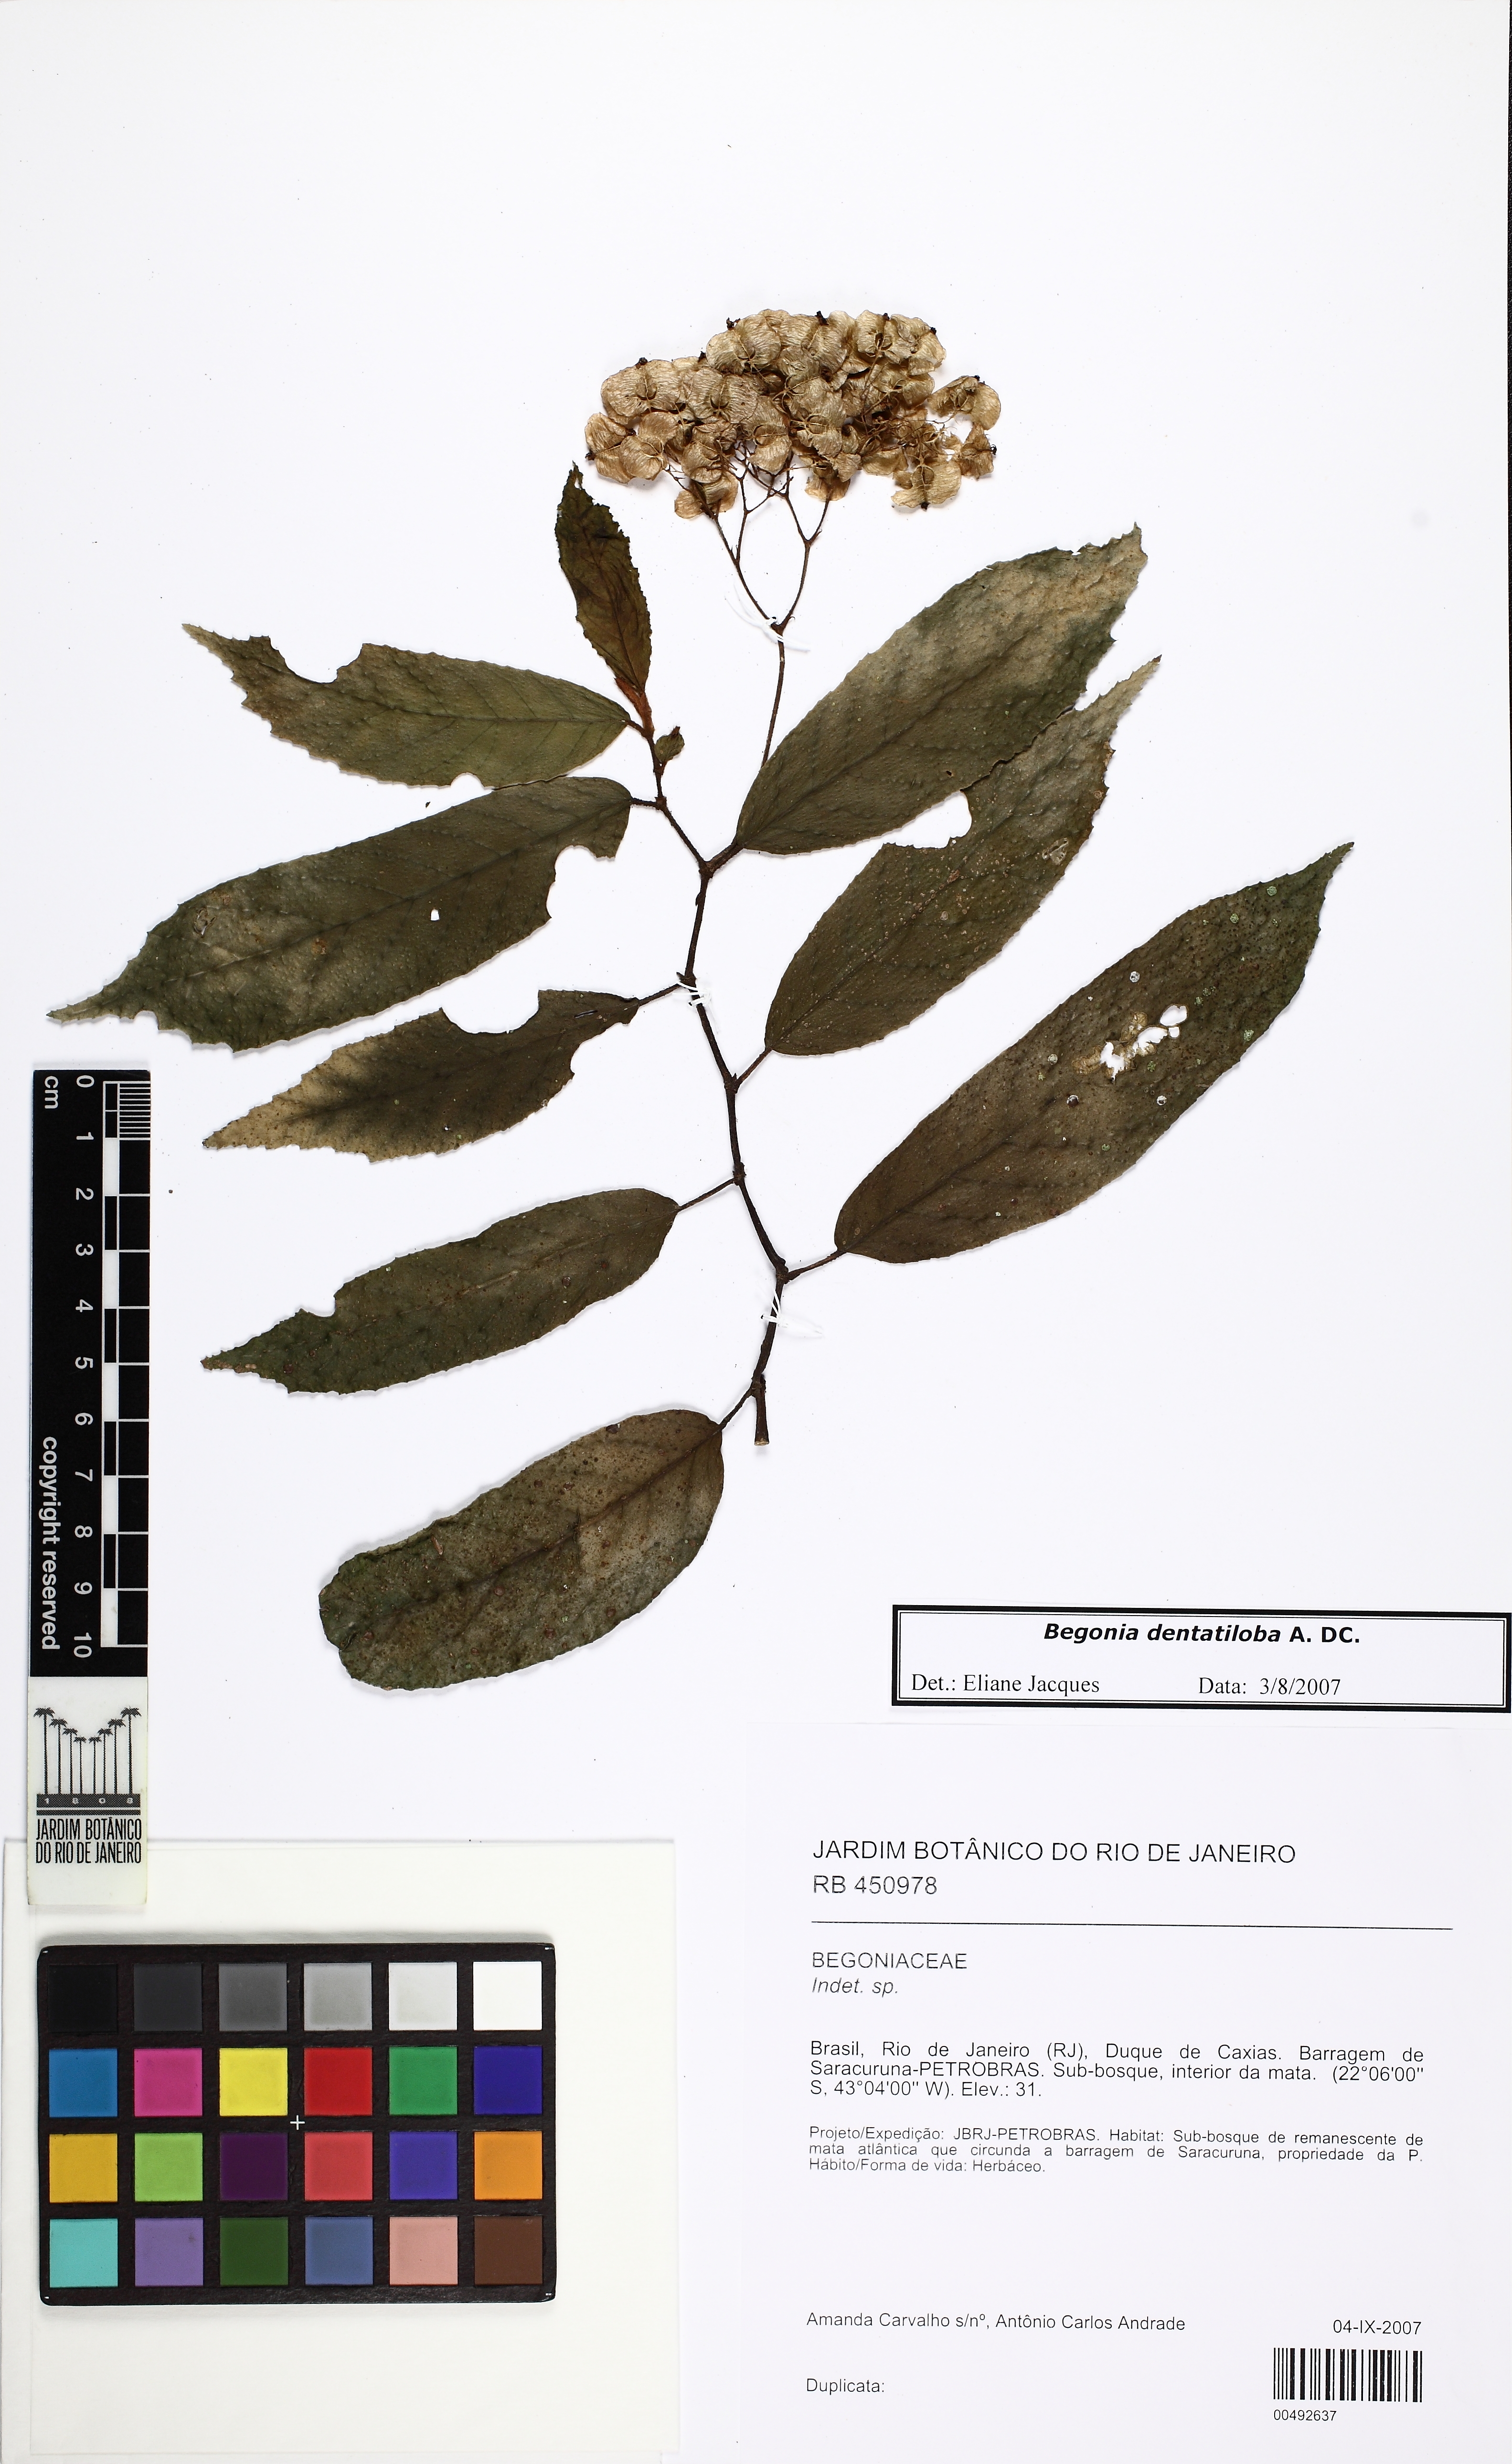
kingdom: Plantae
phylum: Tracheophyta
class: Magnoliopsida
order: Cucurbitales
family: Begoniaceae
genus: Begonia
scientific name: Begonia dentatiloba
